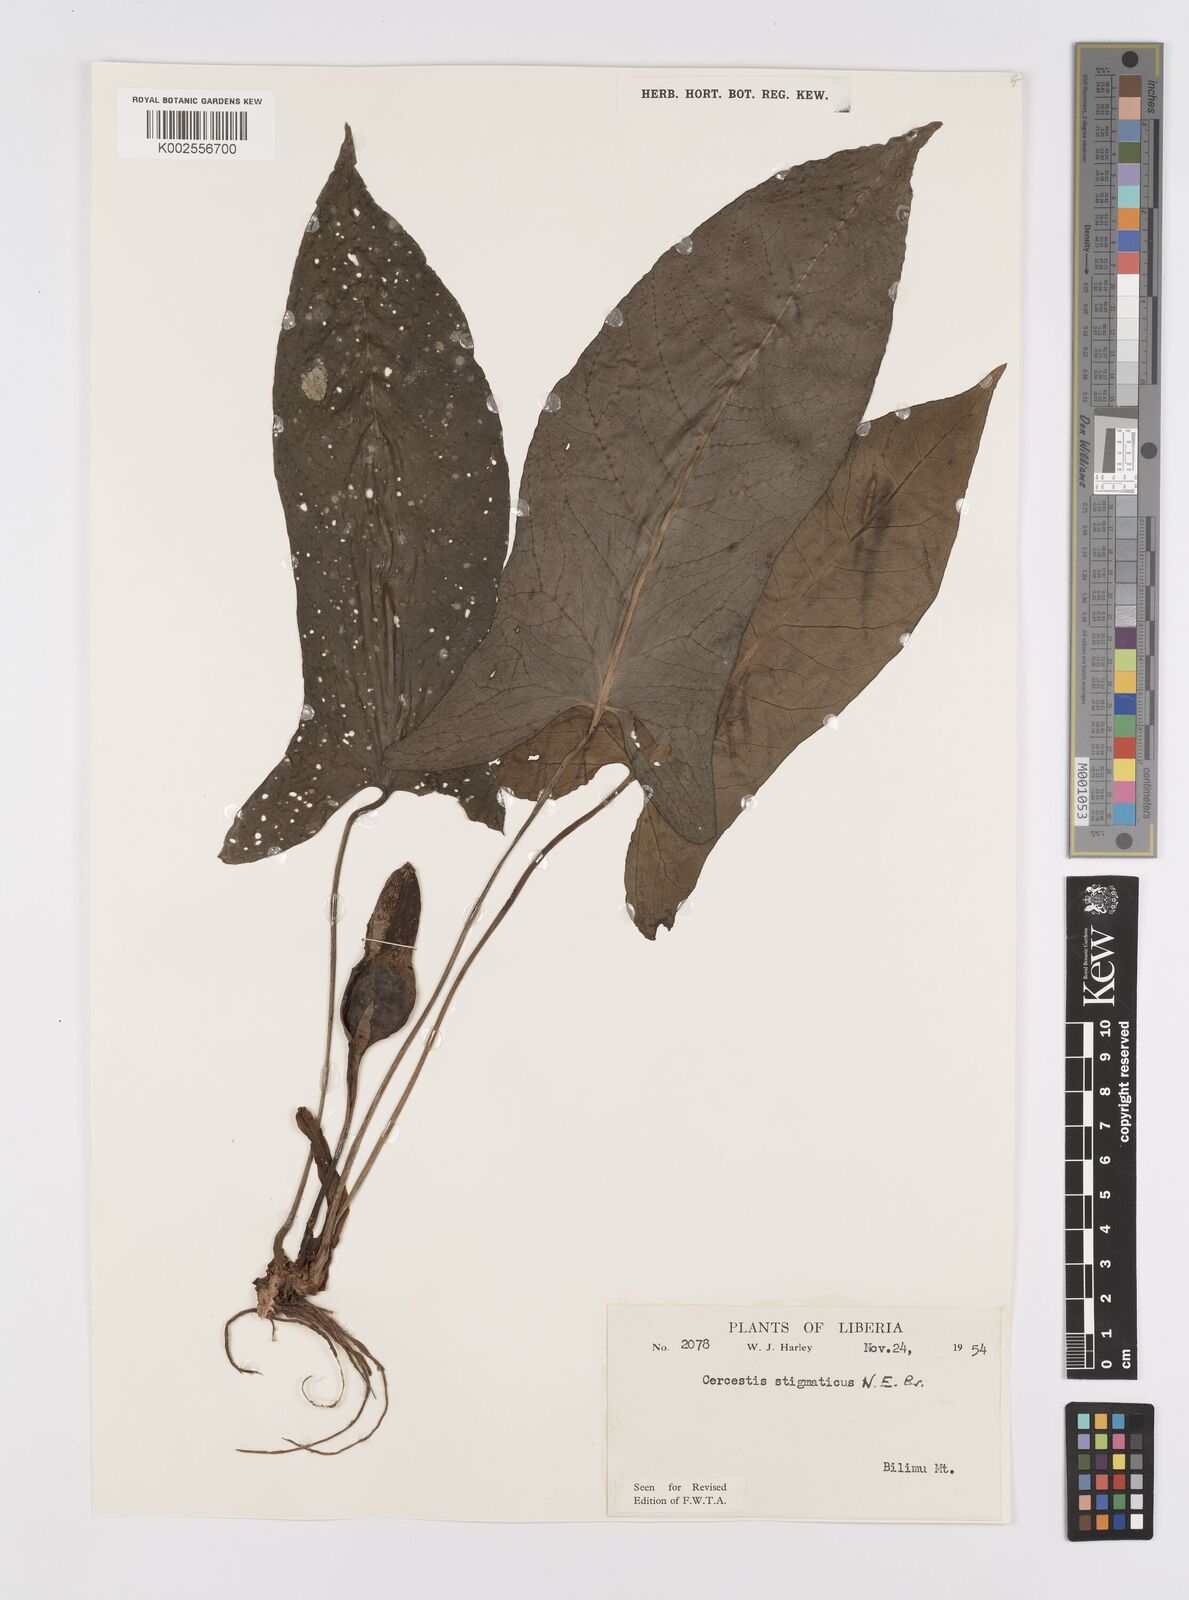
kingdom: Plantae
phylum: Tracheophyta
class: Liliopsida
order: Alismatales
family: Araceae
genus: Cercestis
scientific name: Cercestis dinklagei
